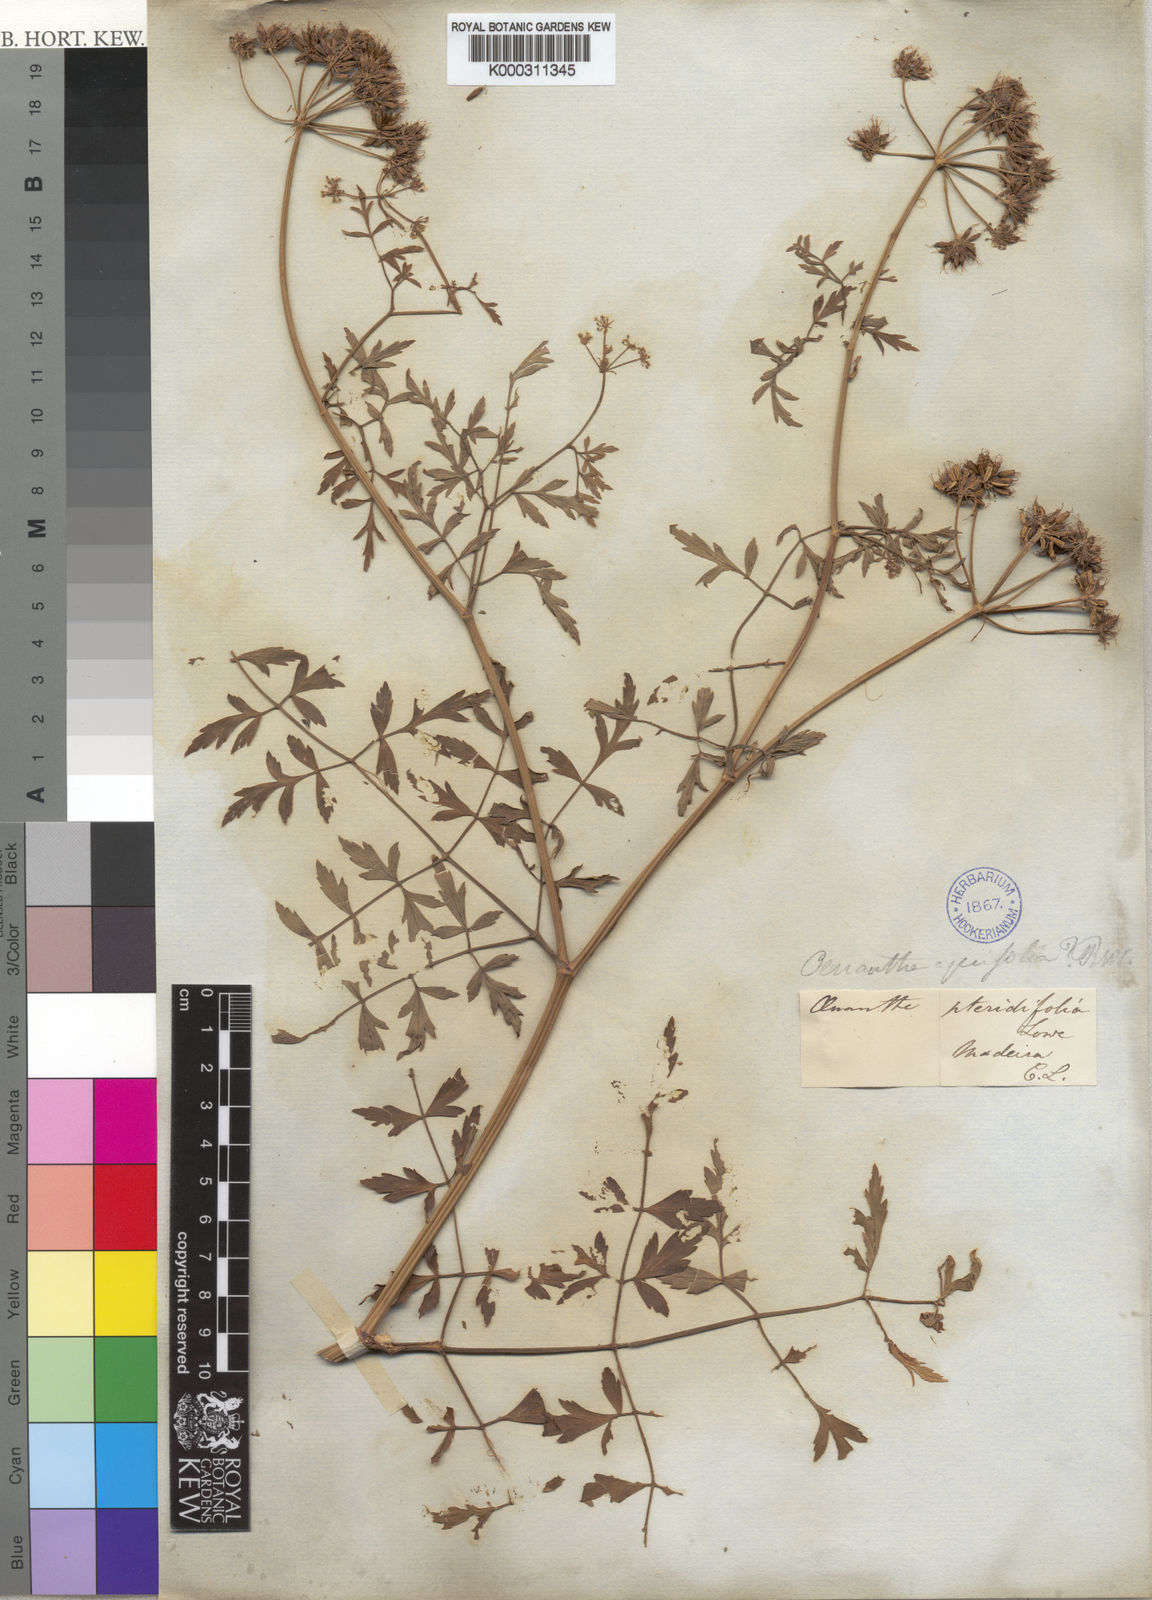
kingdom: Plantae
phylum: Tracheophyta
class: Magnoliopsida
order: Apiales
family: Apiaceae
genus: Oenanthe
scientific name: Oenanthe pteridifolia
